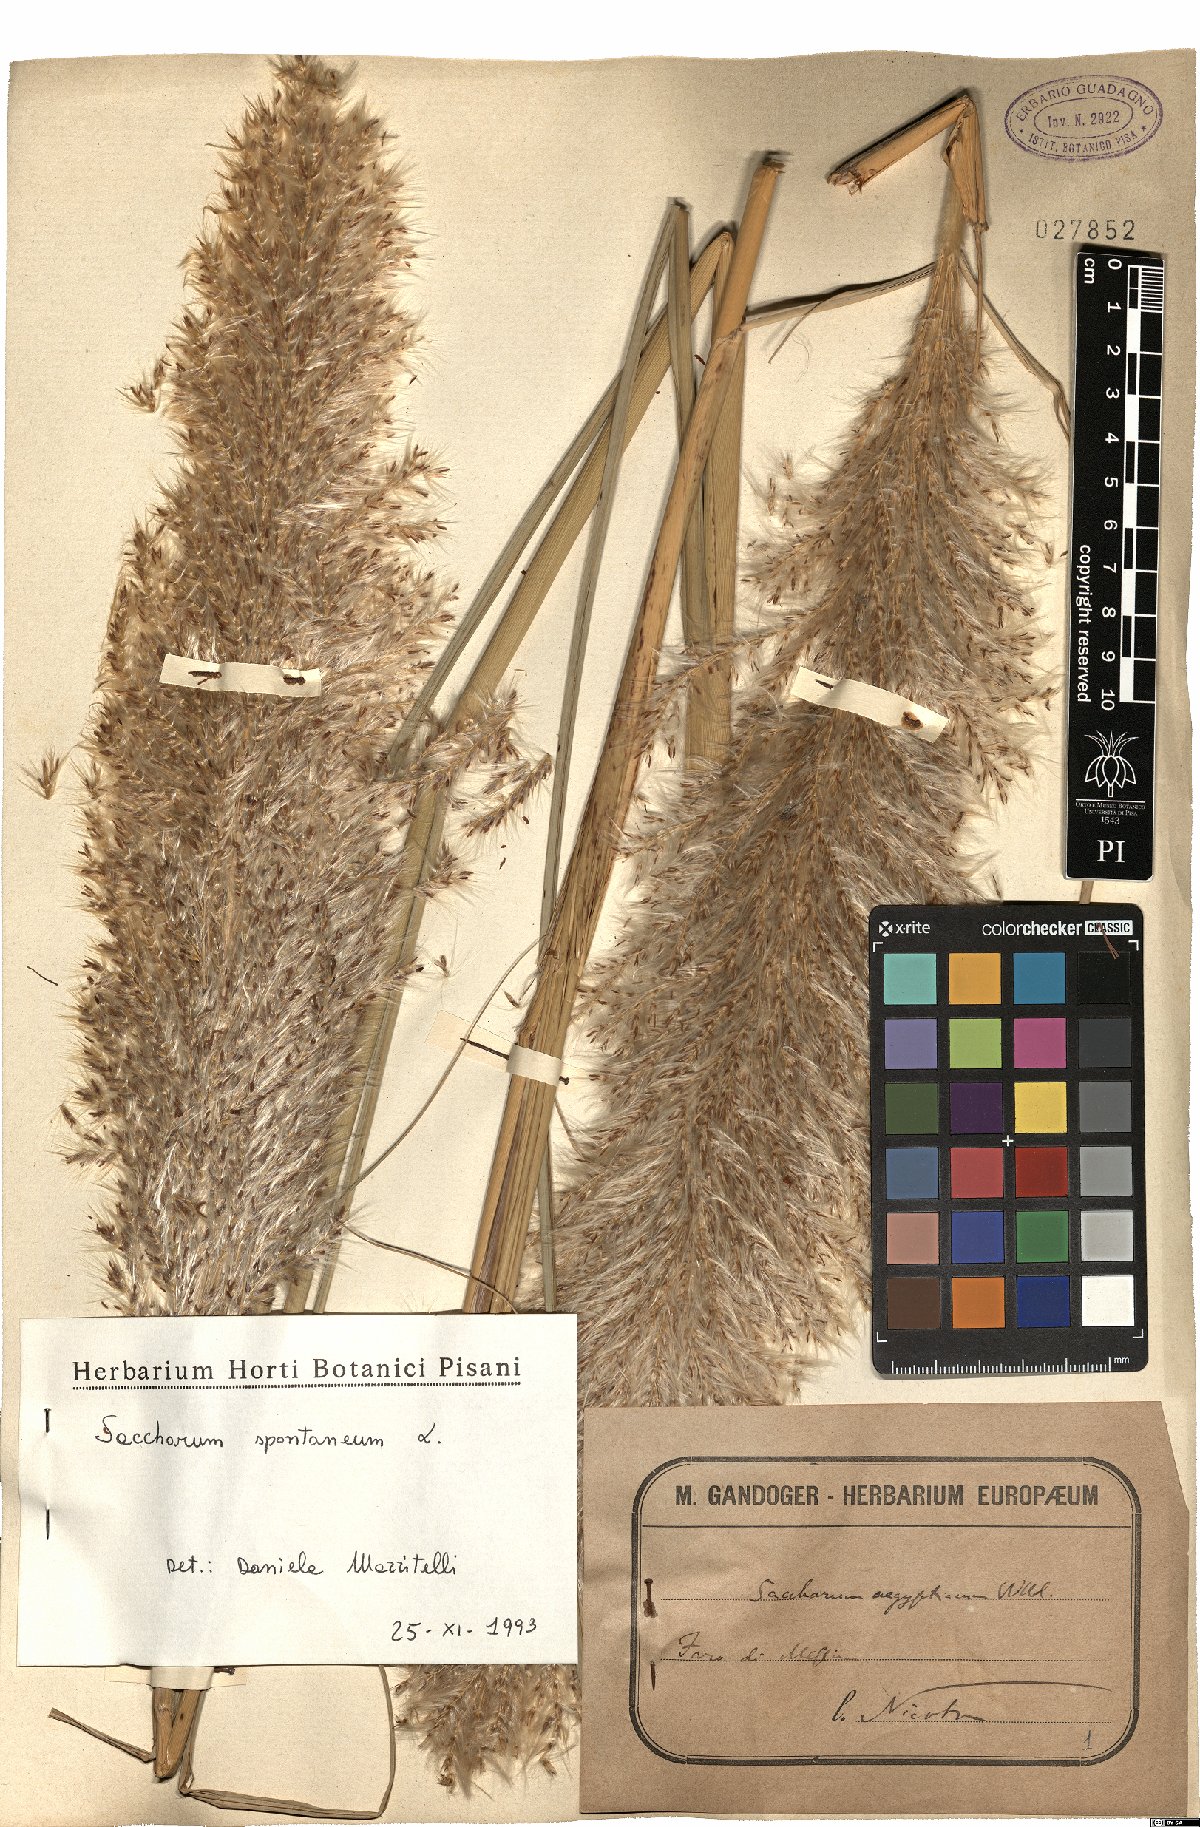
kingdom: Plantae
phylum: Tracheophyta
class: Liliopsida
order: Poales
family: Poaceae
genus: Saccharum
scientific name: Saccharum spontaneum
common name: Wild sugarcane
